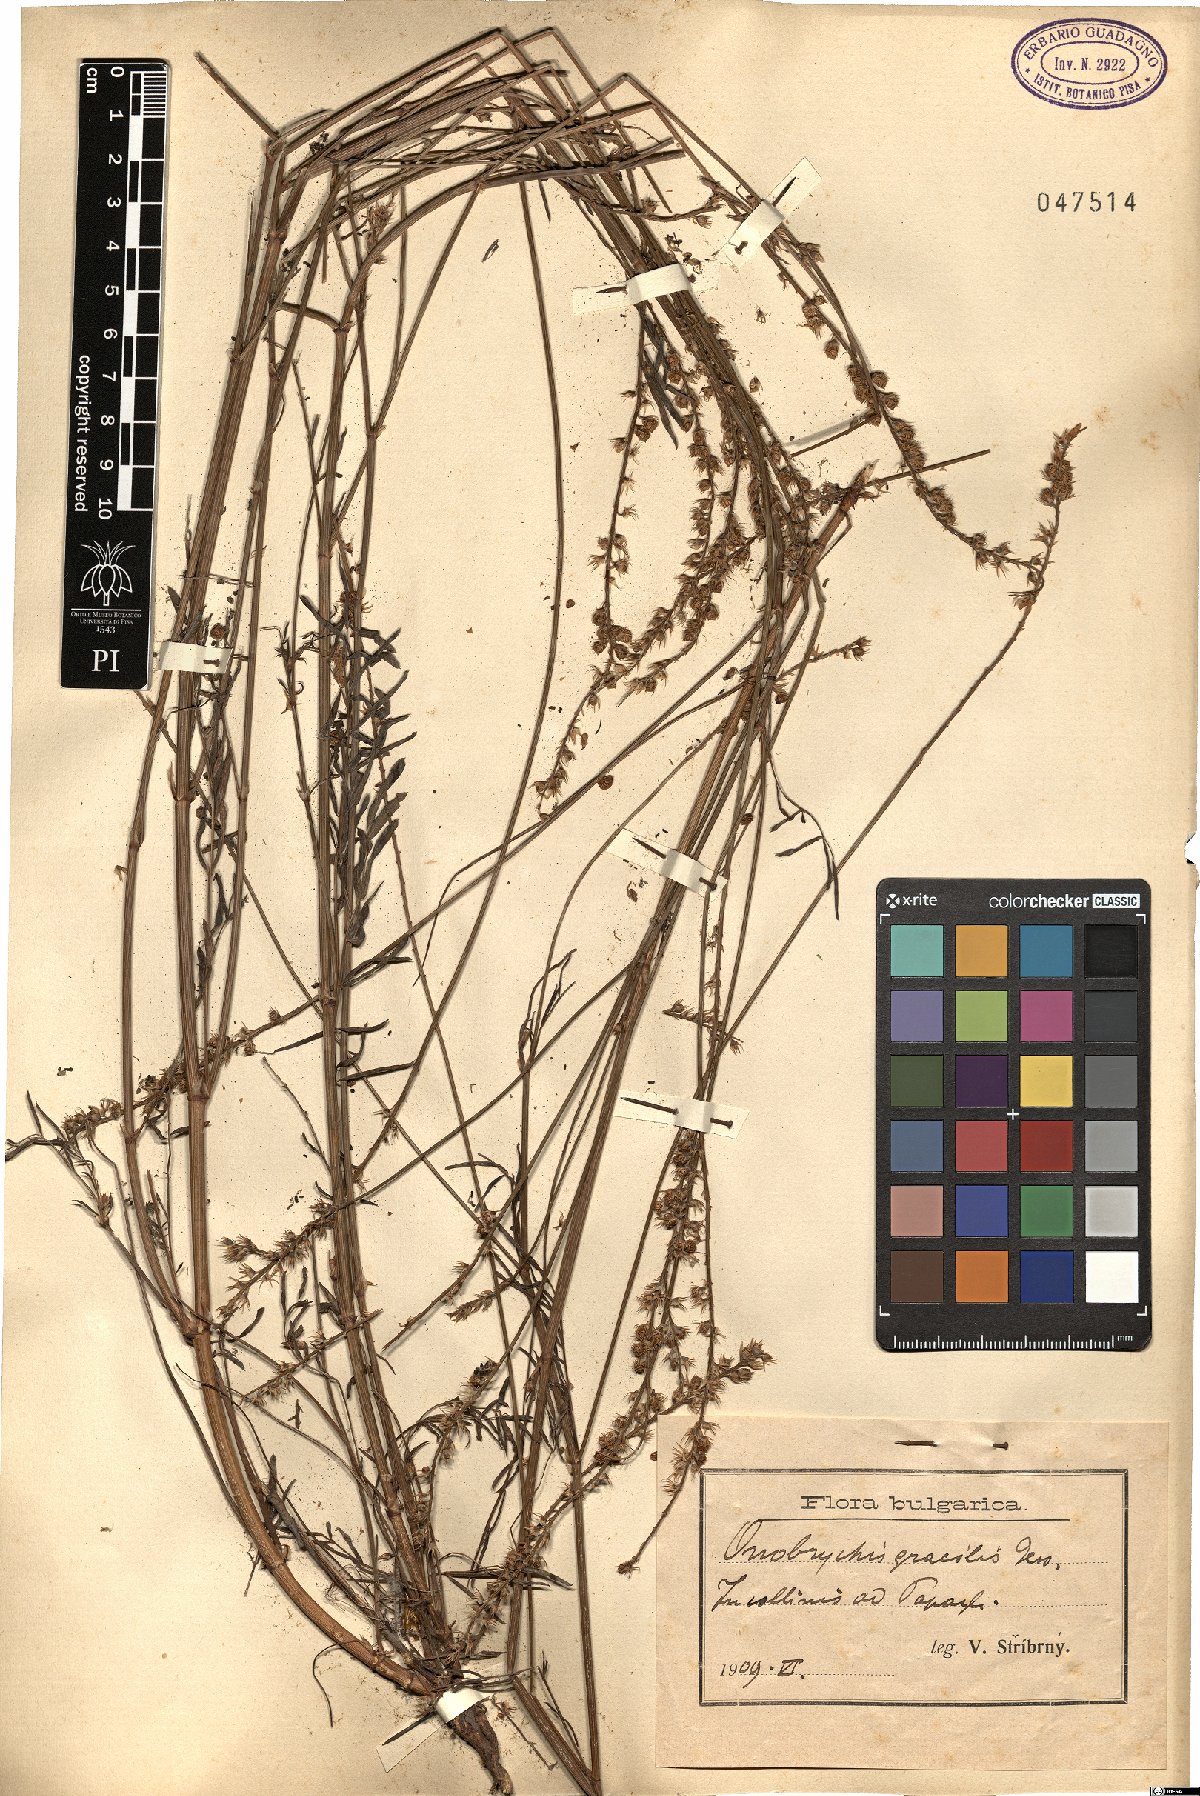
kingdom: Plantae
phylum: Tracheophyta
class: Magnoliopsida
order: Fabales
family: Fabaceae
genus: Onobrychis
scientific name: Onobrychis gracilis
